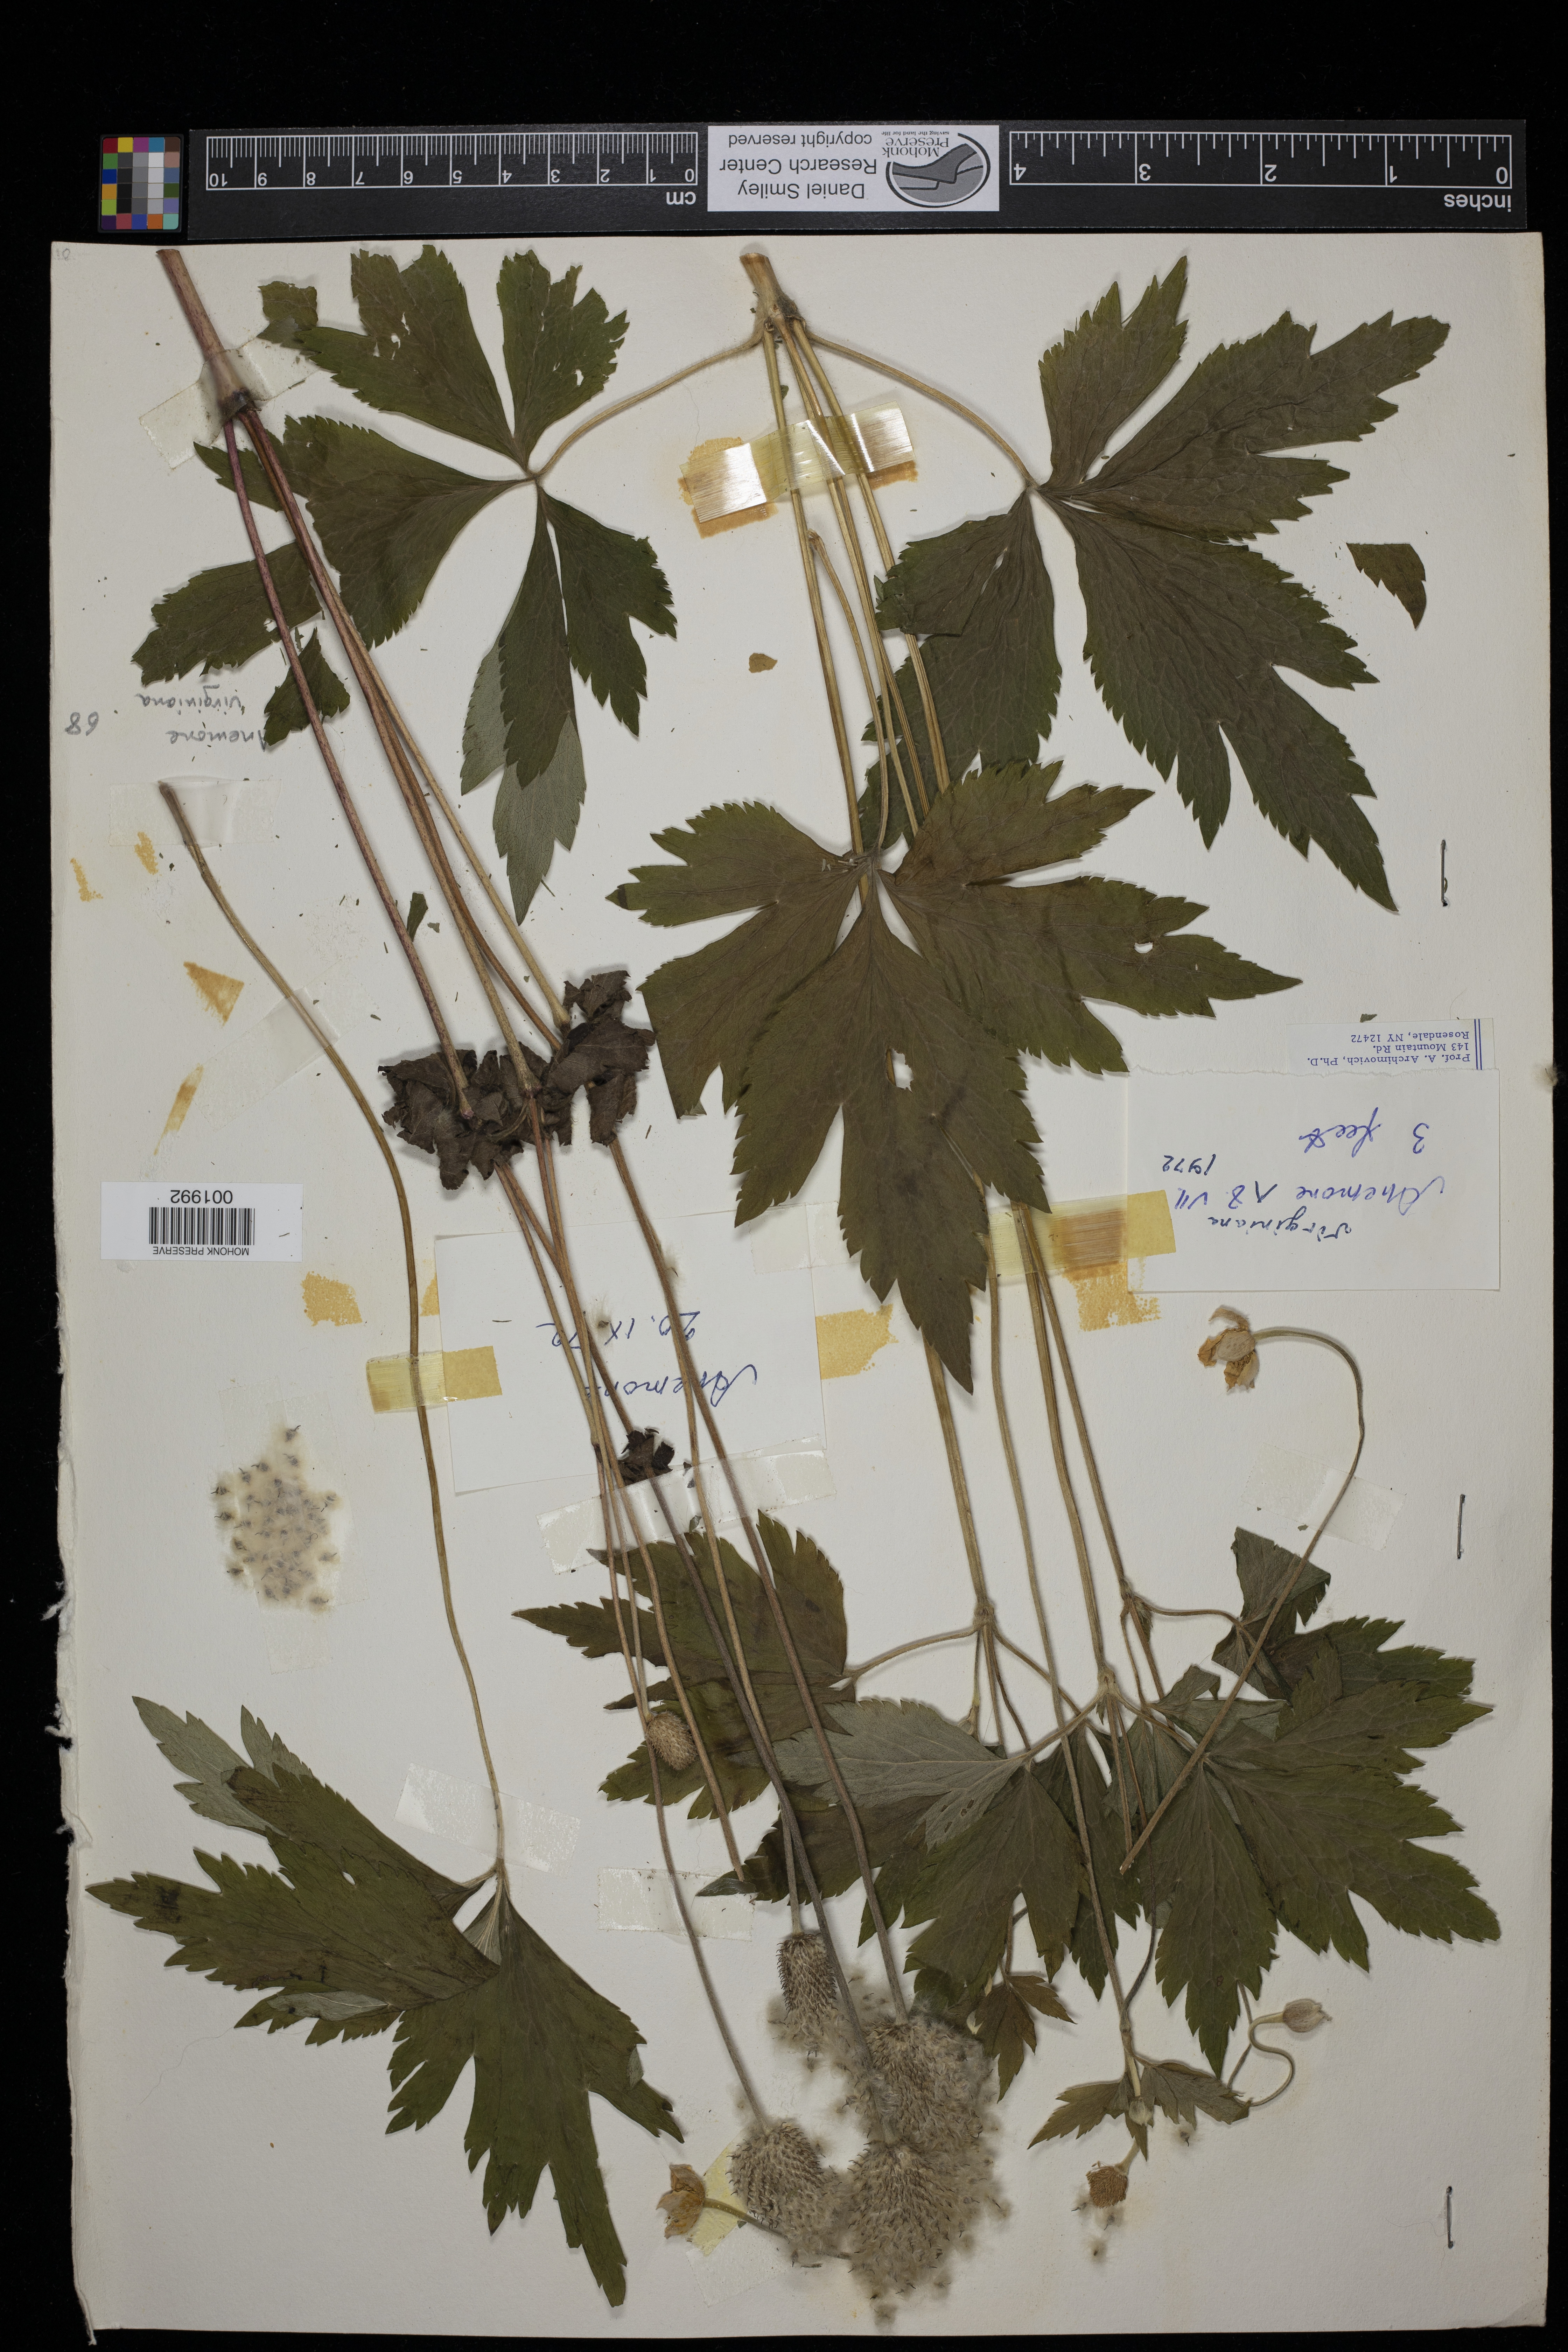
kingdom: Plantae
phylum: Tracheophyta
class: Magnoliopsida
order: Ranunculales
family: Ranunculaceae
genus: Anemone
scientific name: Anemone virginiana
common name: Tall anemone
